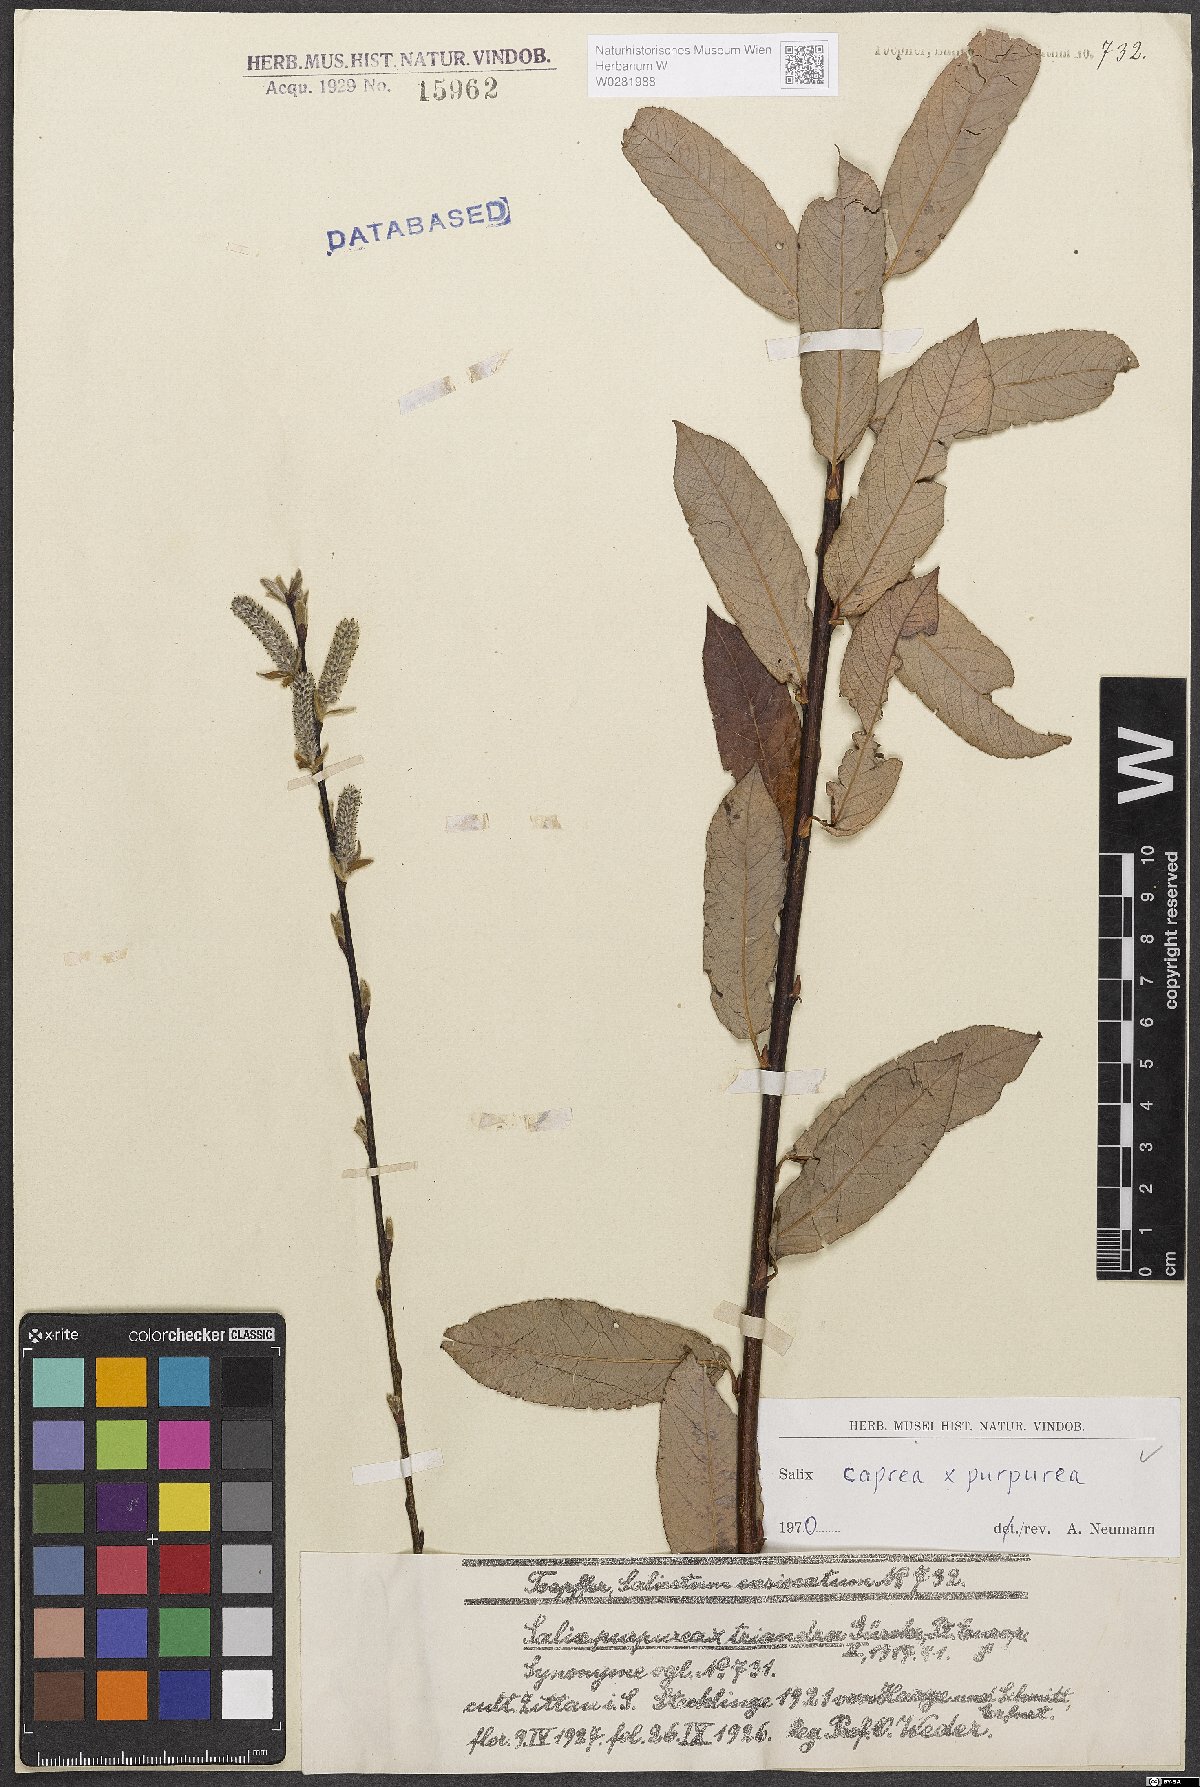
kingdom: Plantae
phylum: Tracheophyta
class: Magnoliopsida
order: Malpighiales
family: Salicaceae
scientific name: Salicaceae
